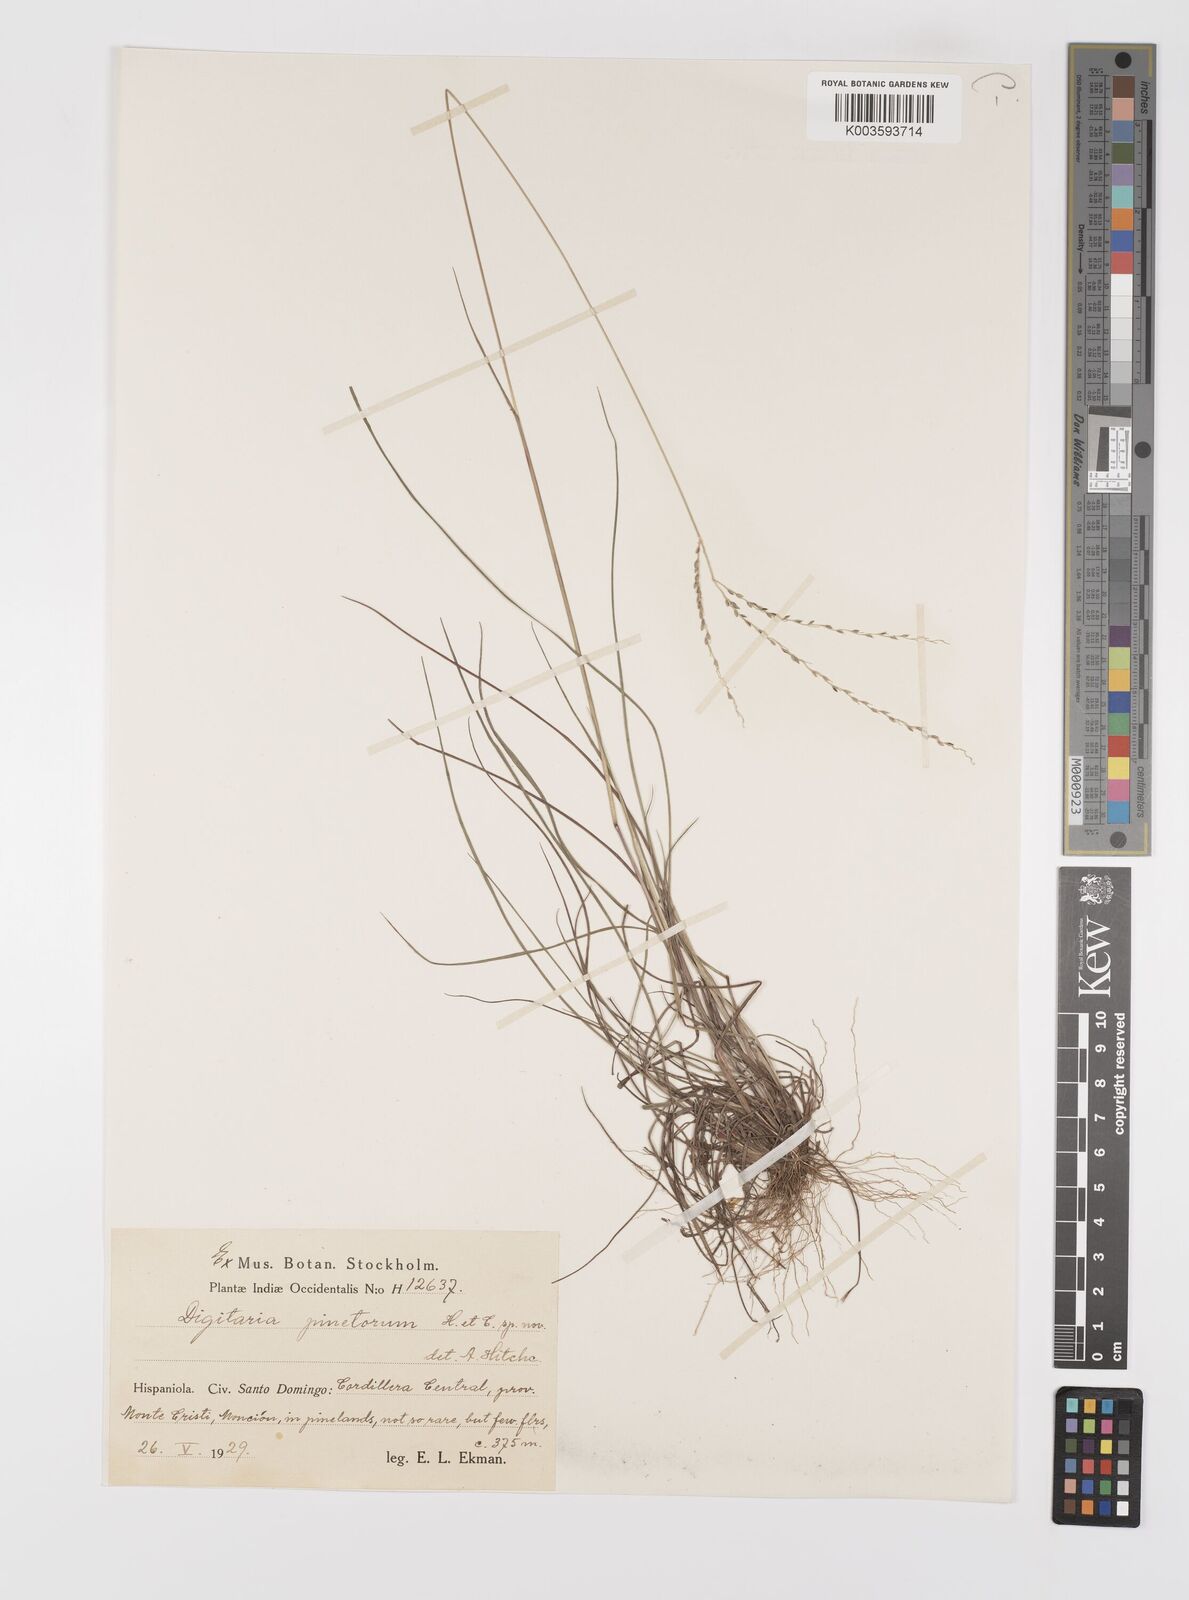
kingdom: Plantae
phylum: Tracheophyta
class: Liliopsida
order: Poales
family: Poaceae
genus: Digitaria
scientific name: Digitaria villosa
